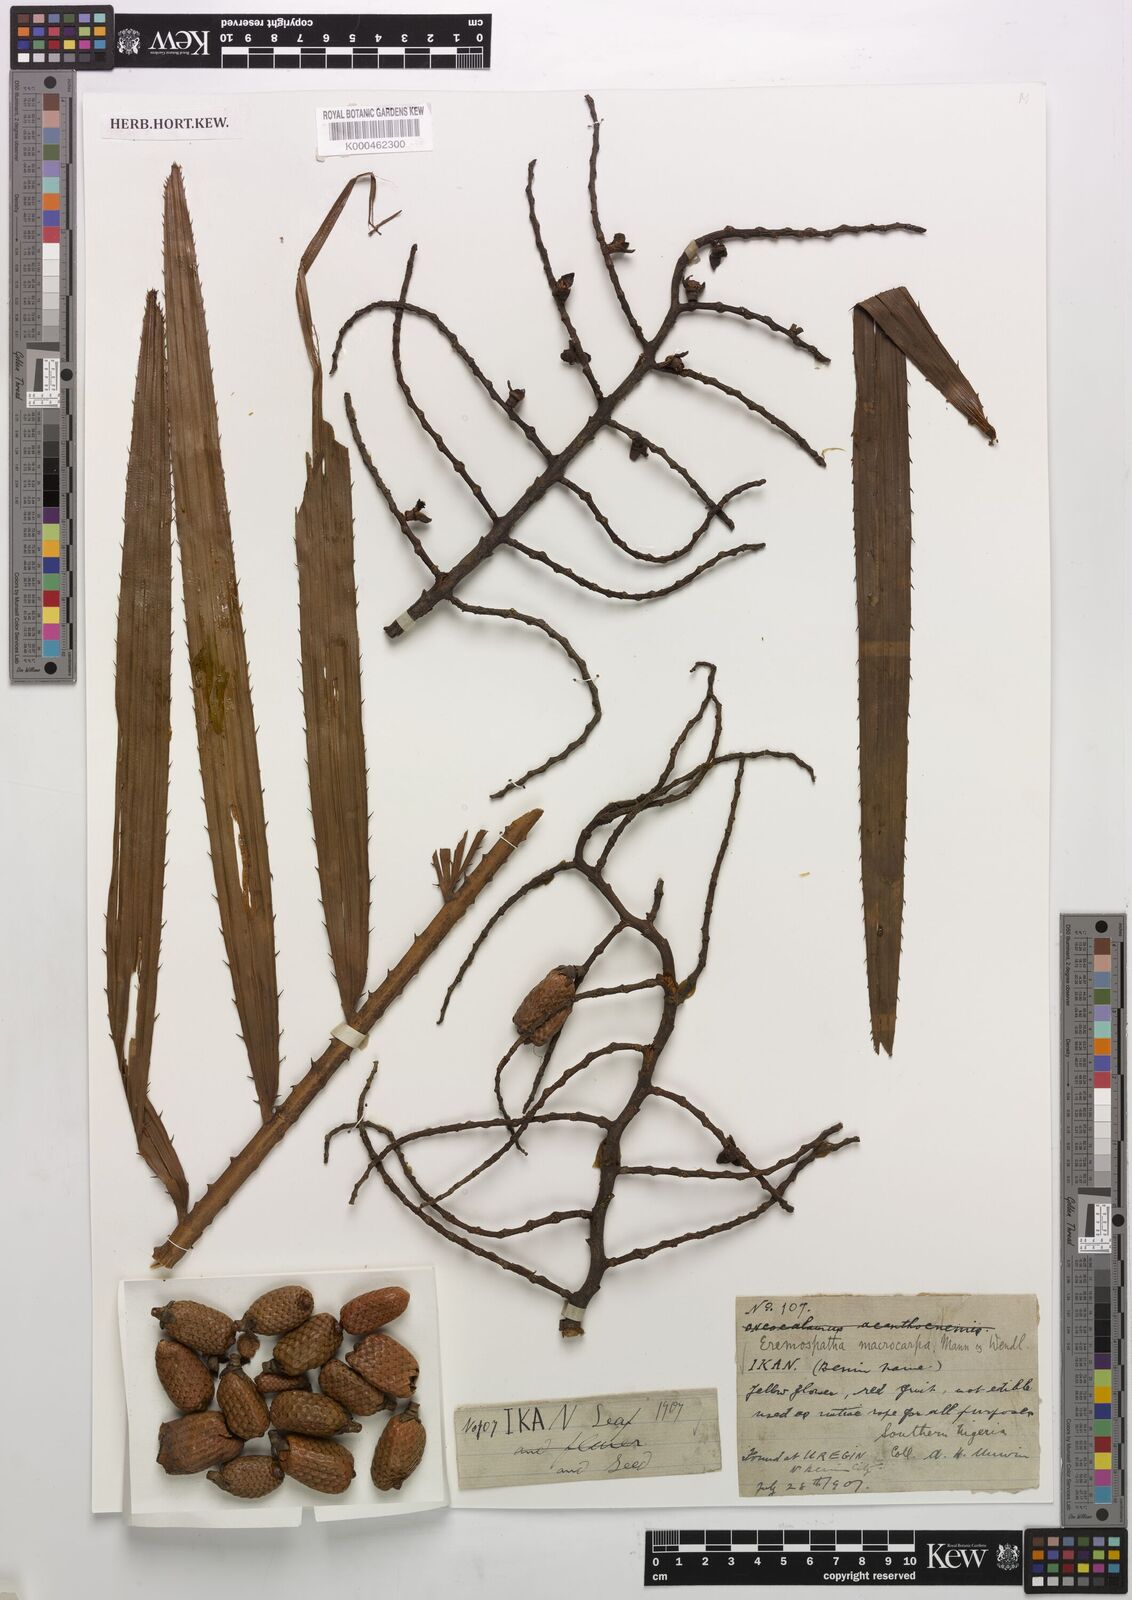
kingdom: Plantae
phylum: Tracheophyta
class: Liliopsida
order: Arecales
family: Arecaceae
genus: Eremospatha
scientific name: Eremospatha
